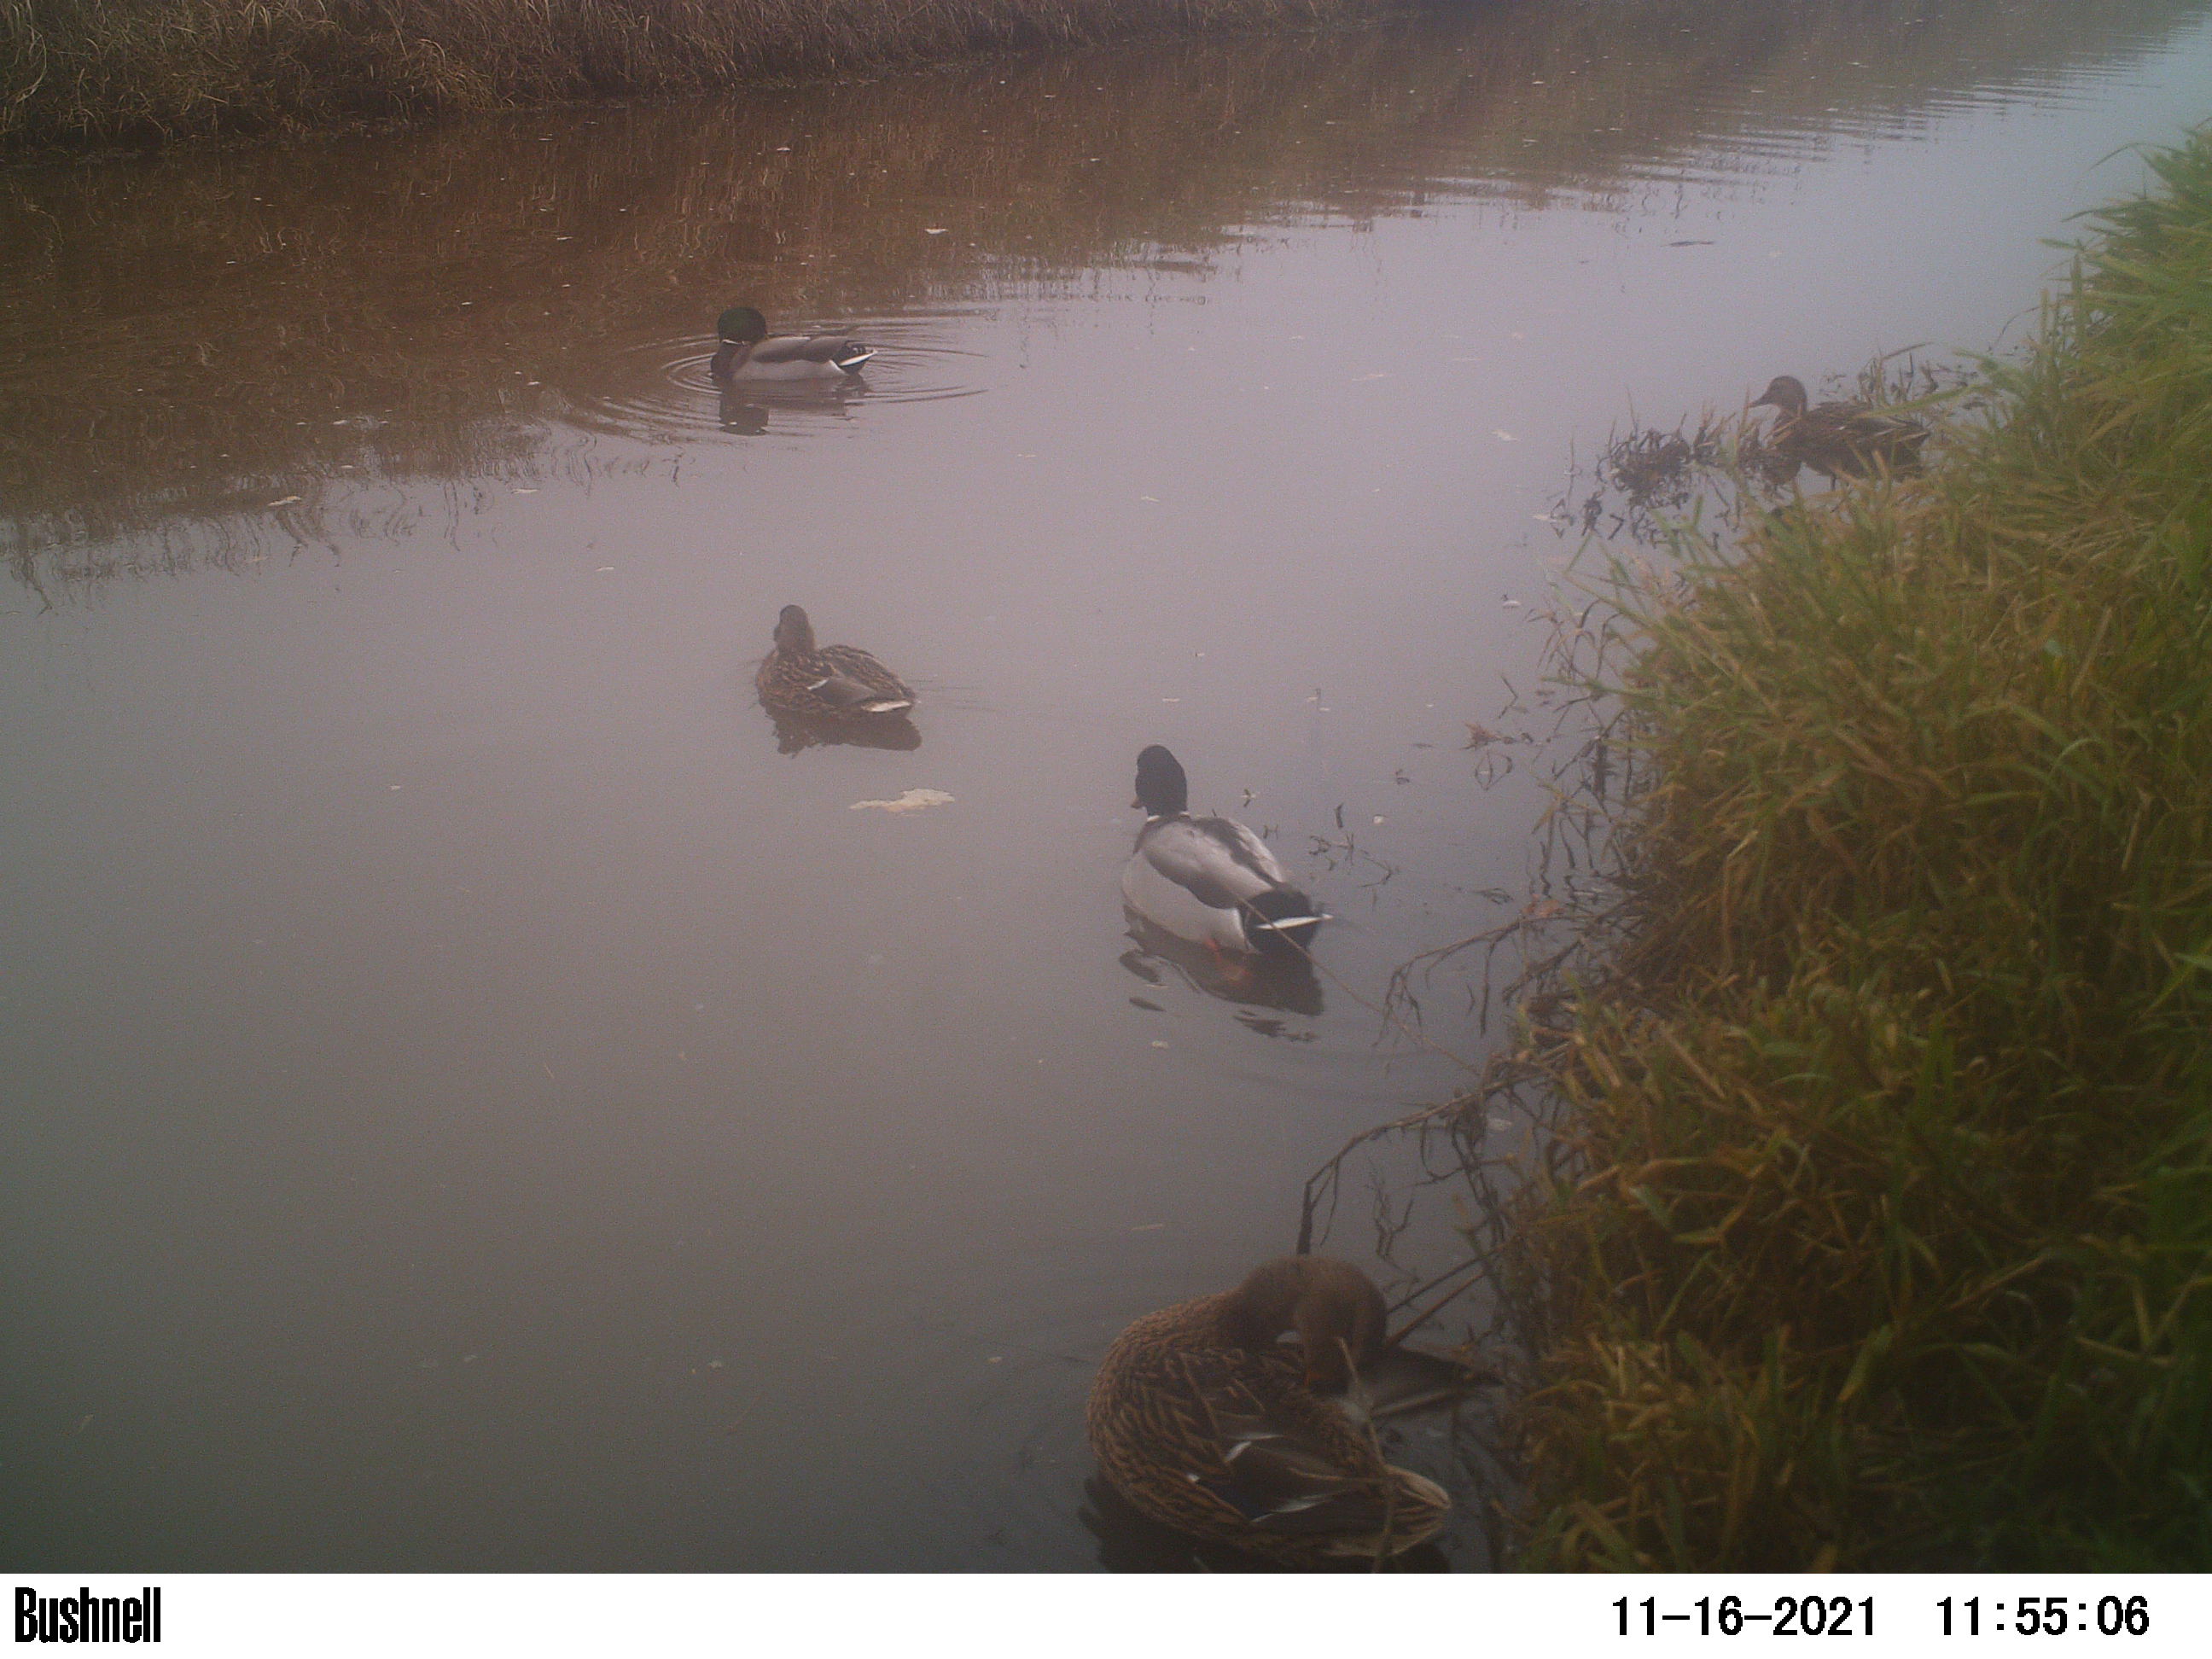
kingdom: Animalia
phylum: Chordata
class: Aves
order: Anseriformes
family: Anatidae
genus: Anas
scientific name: Anas
